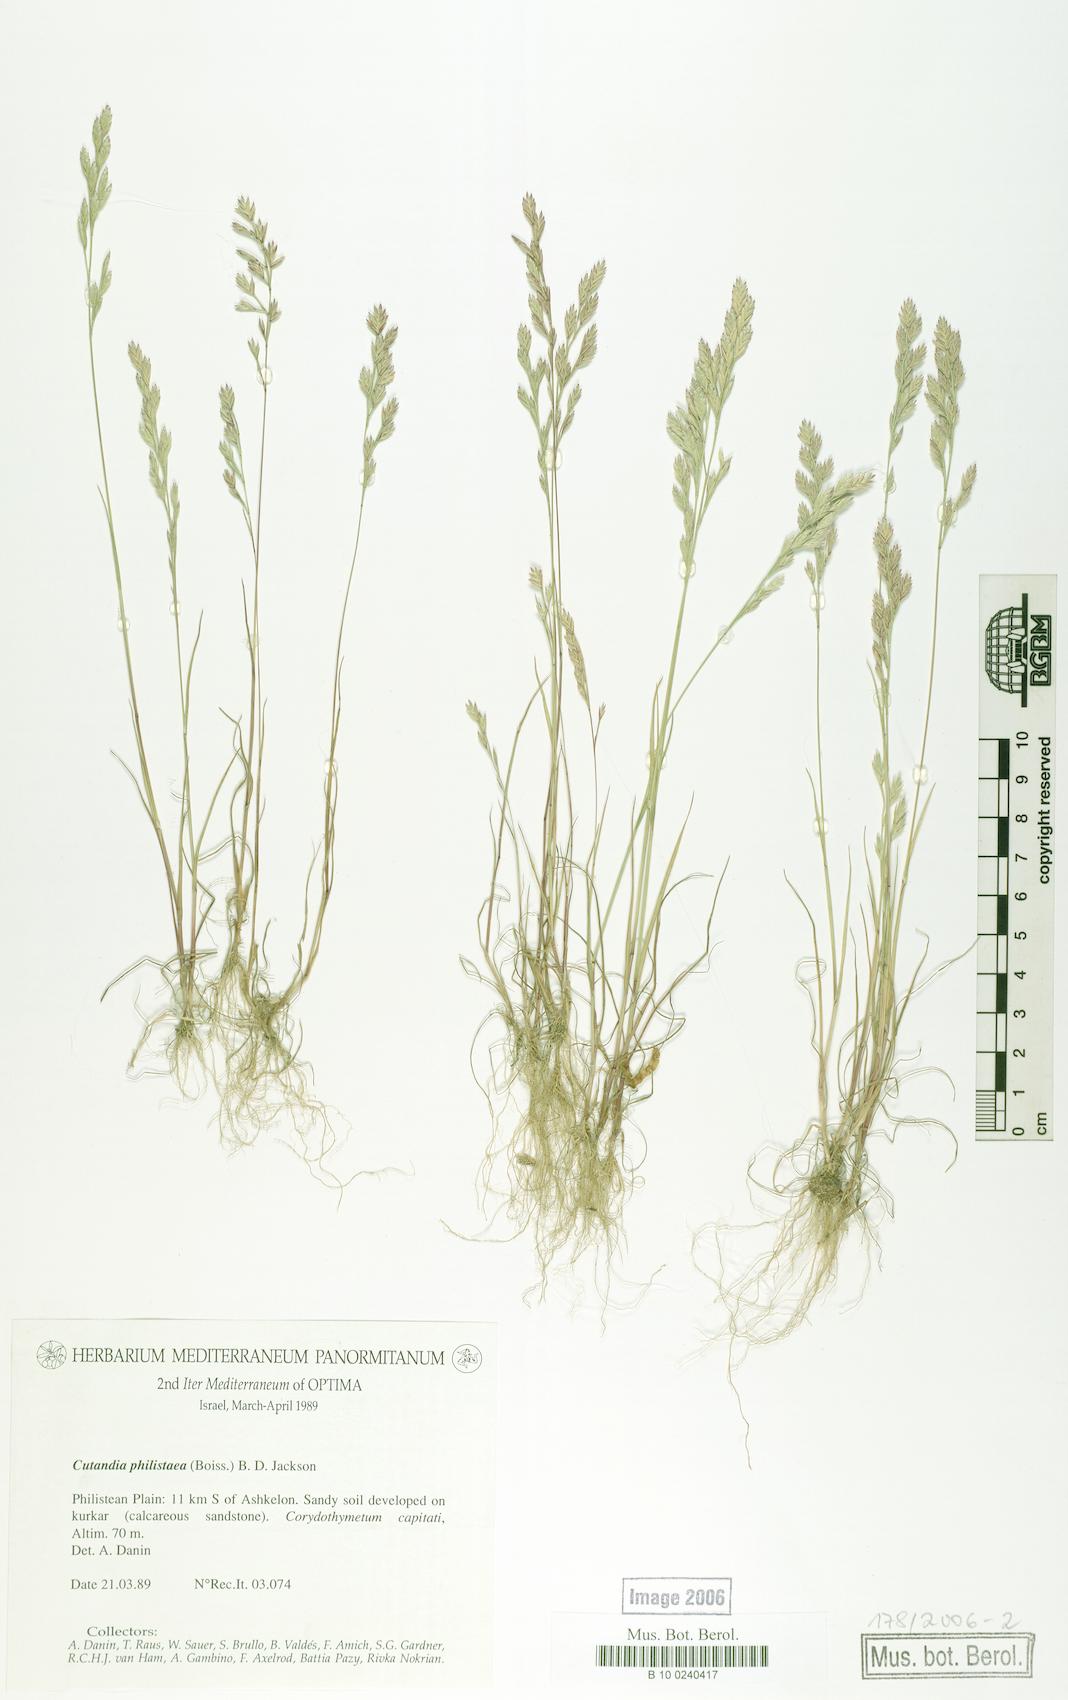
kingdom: Plantae
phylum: Tracheophyta
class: Liliopsida
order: Poales
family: Poaceae
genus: Desmazeria
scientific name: Desmazeria philistaea
